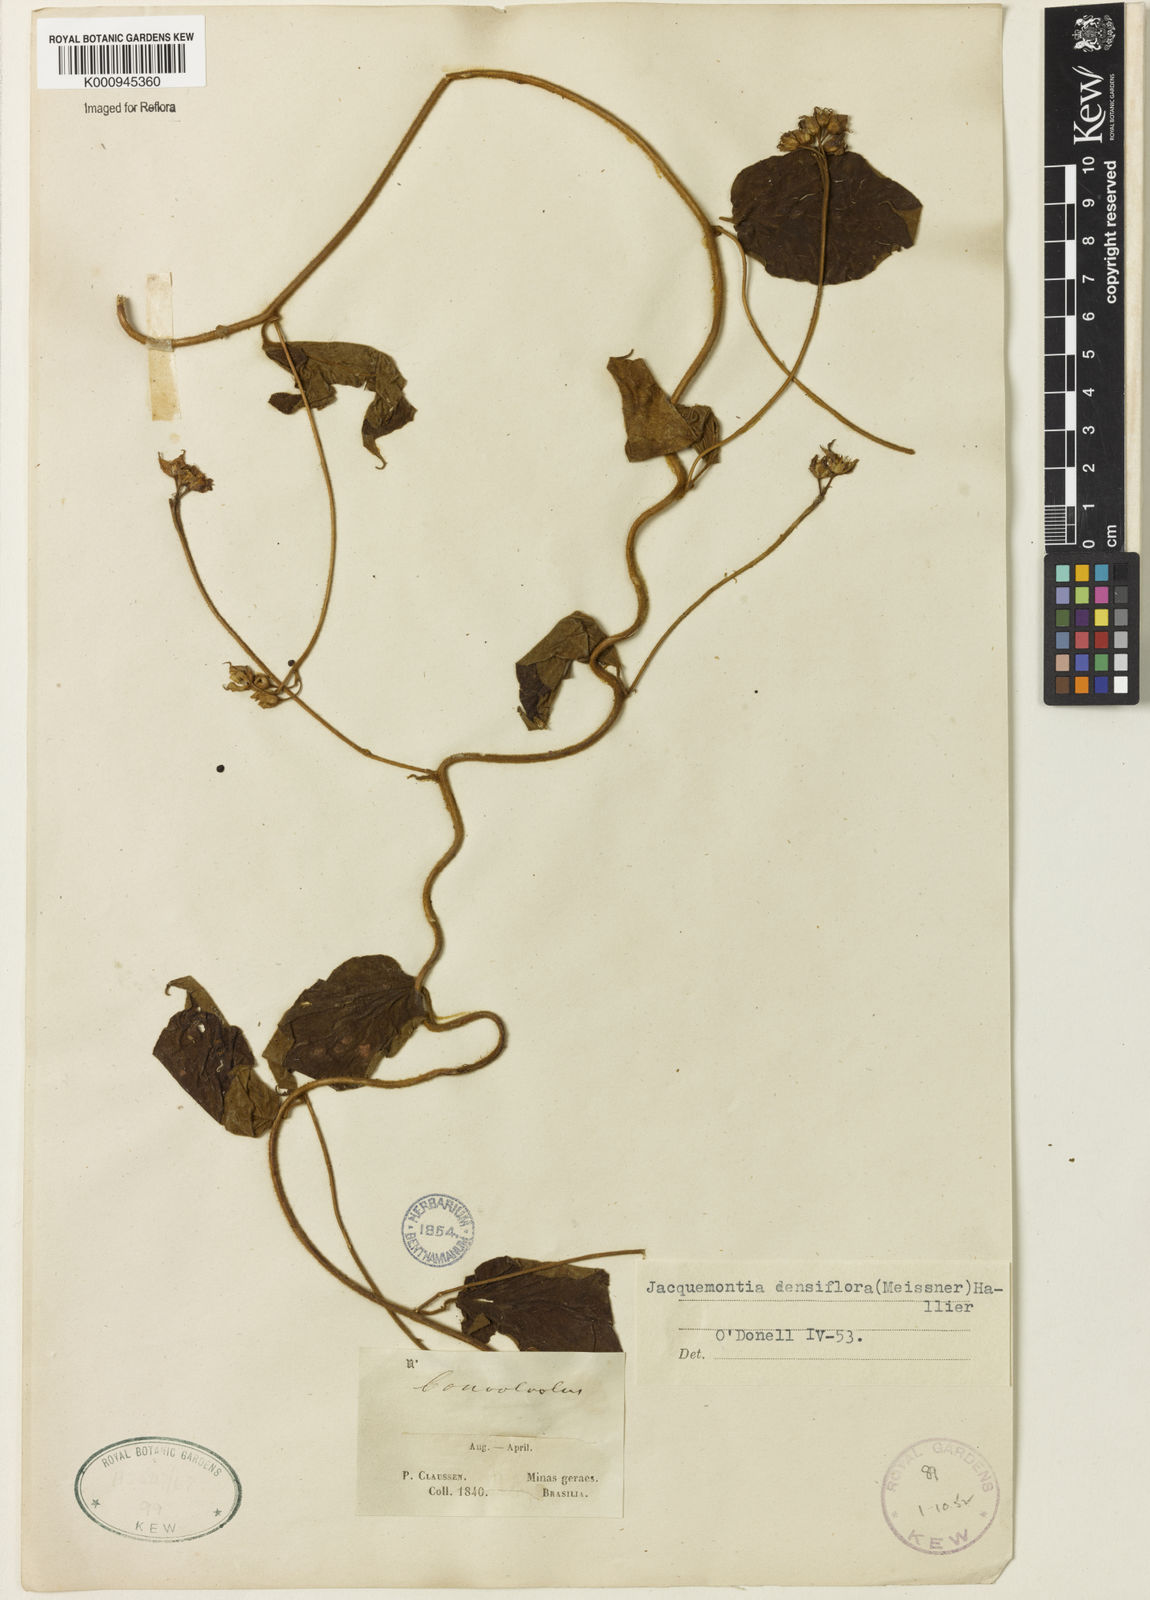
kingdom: Plantae
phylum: Tracheophyta
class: Magnoliopsida
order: Solanales
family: Convolvulaceae
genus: Jacquemontia
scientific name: Jacquemontia densiflora
